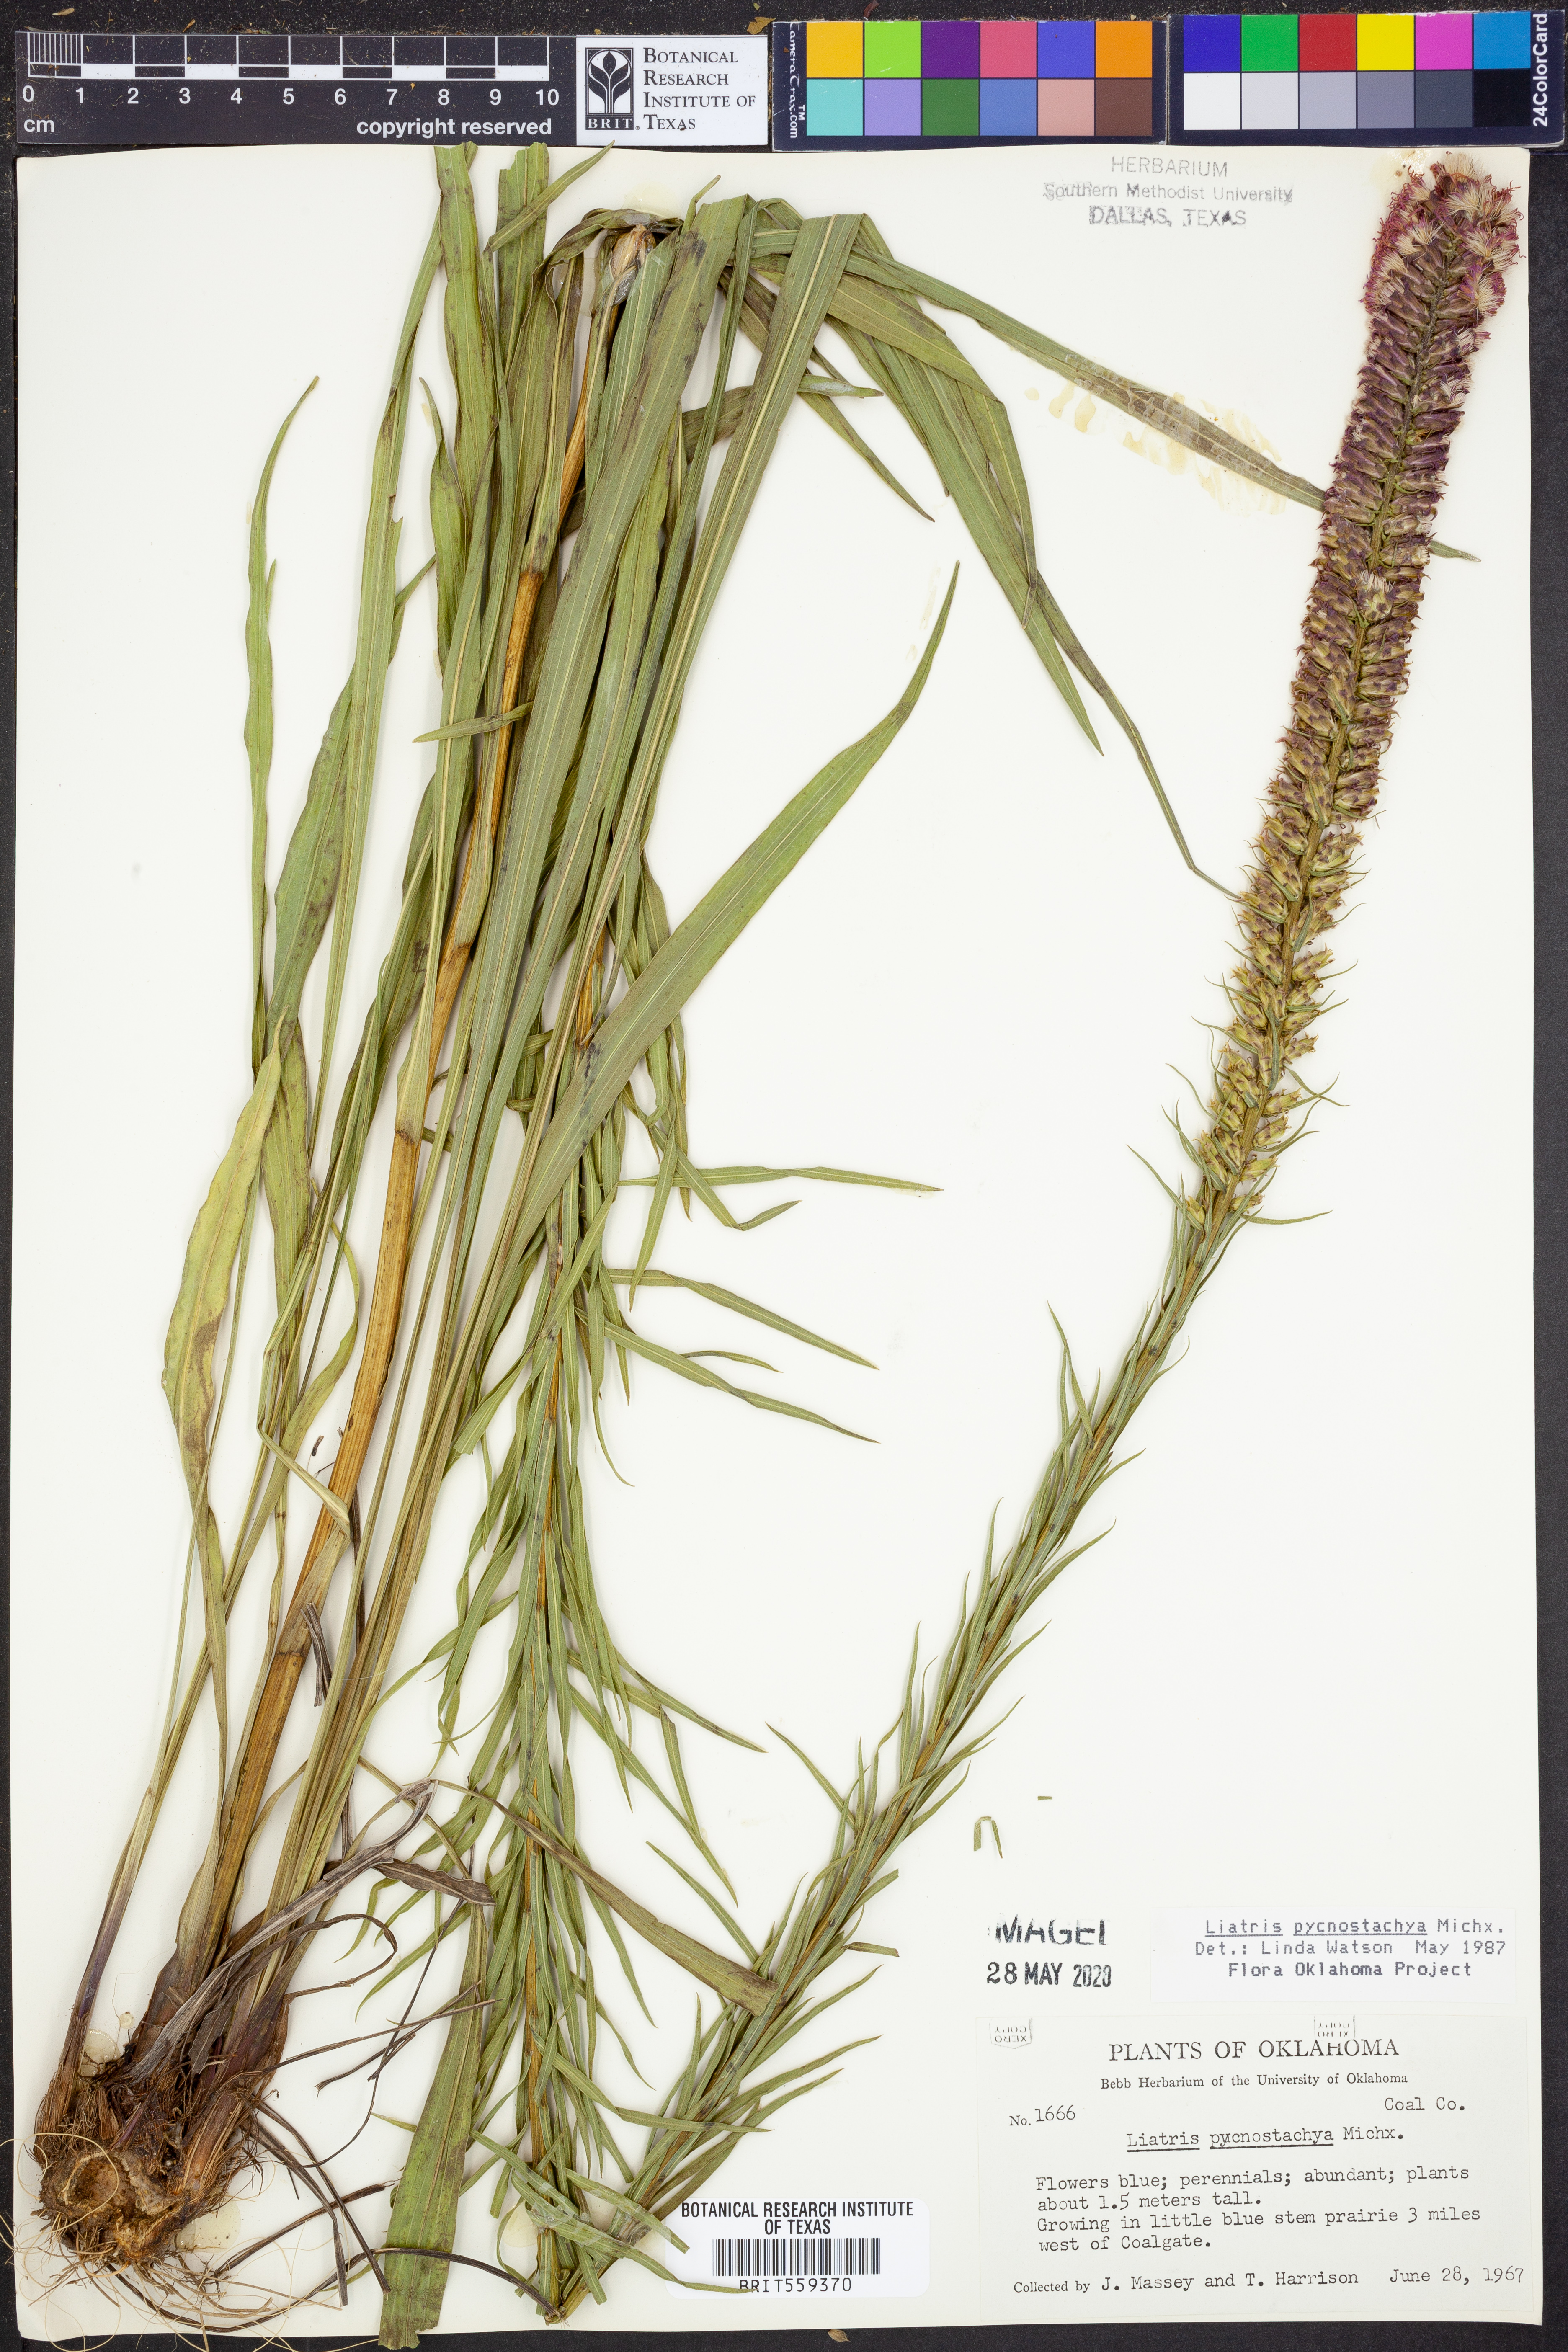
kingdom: Plantae
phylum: Tracheophyta
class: Magnoliopsida
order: Asterales
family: Asteraceae
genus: Liatris
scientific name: Liatris pycnostachya
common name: Cattail gayfeather
